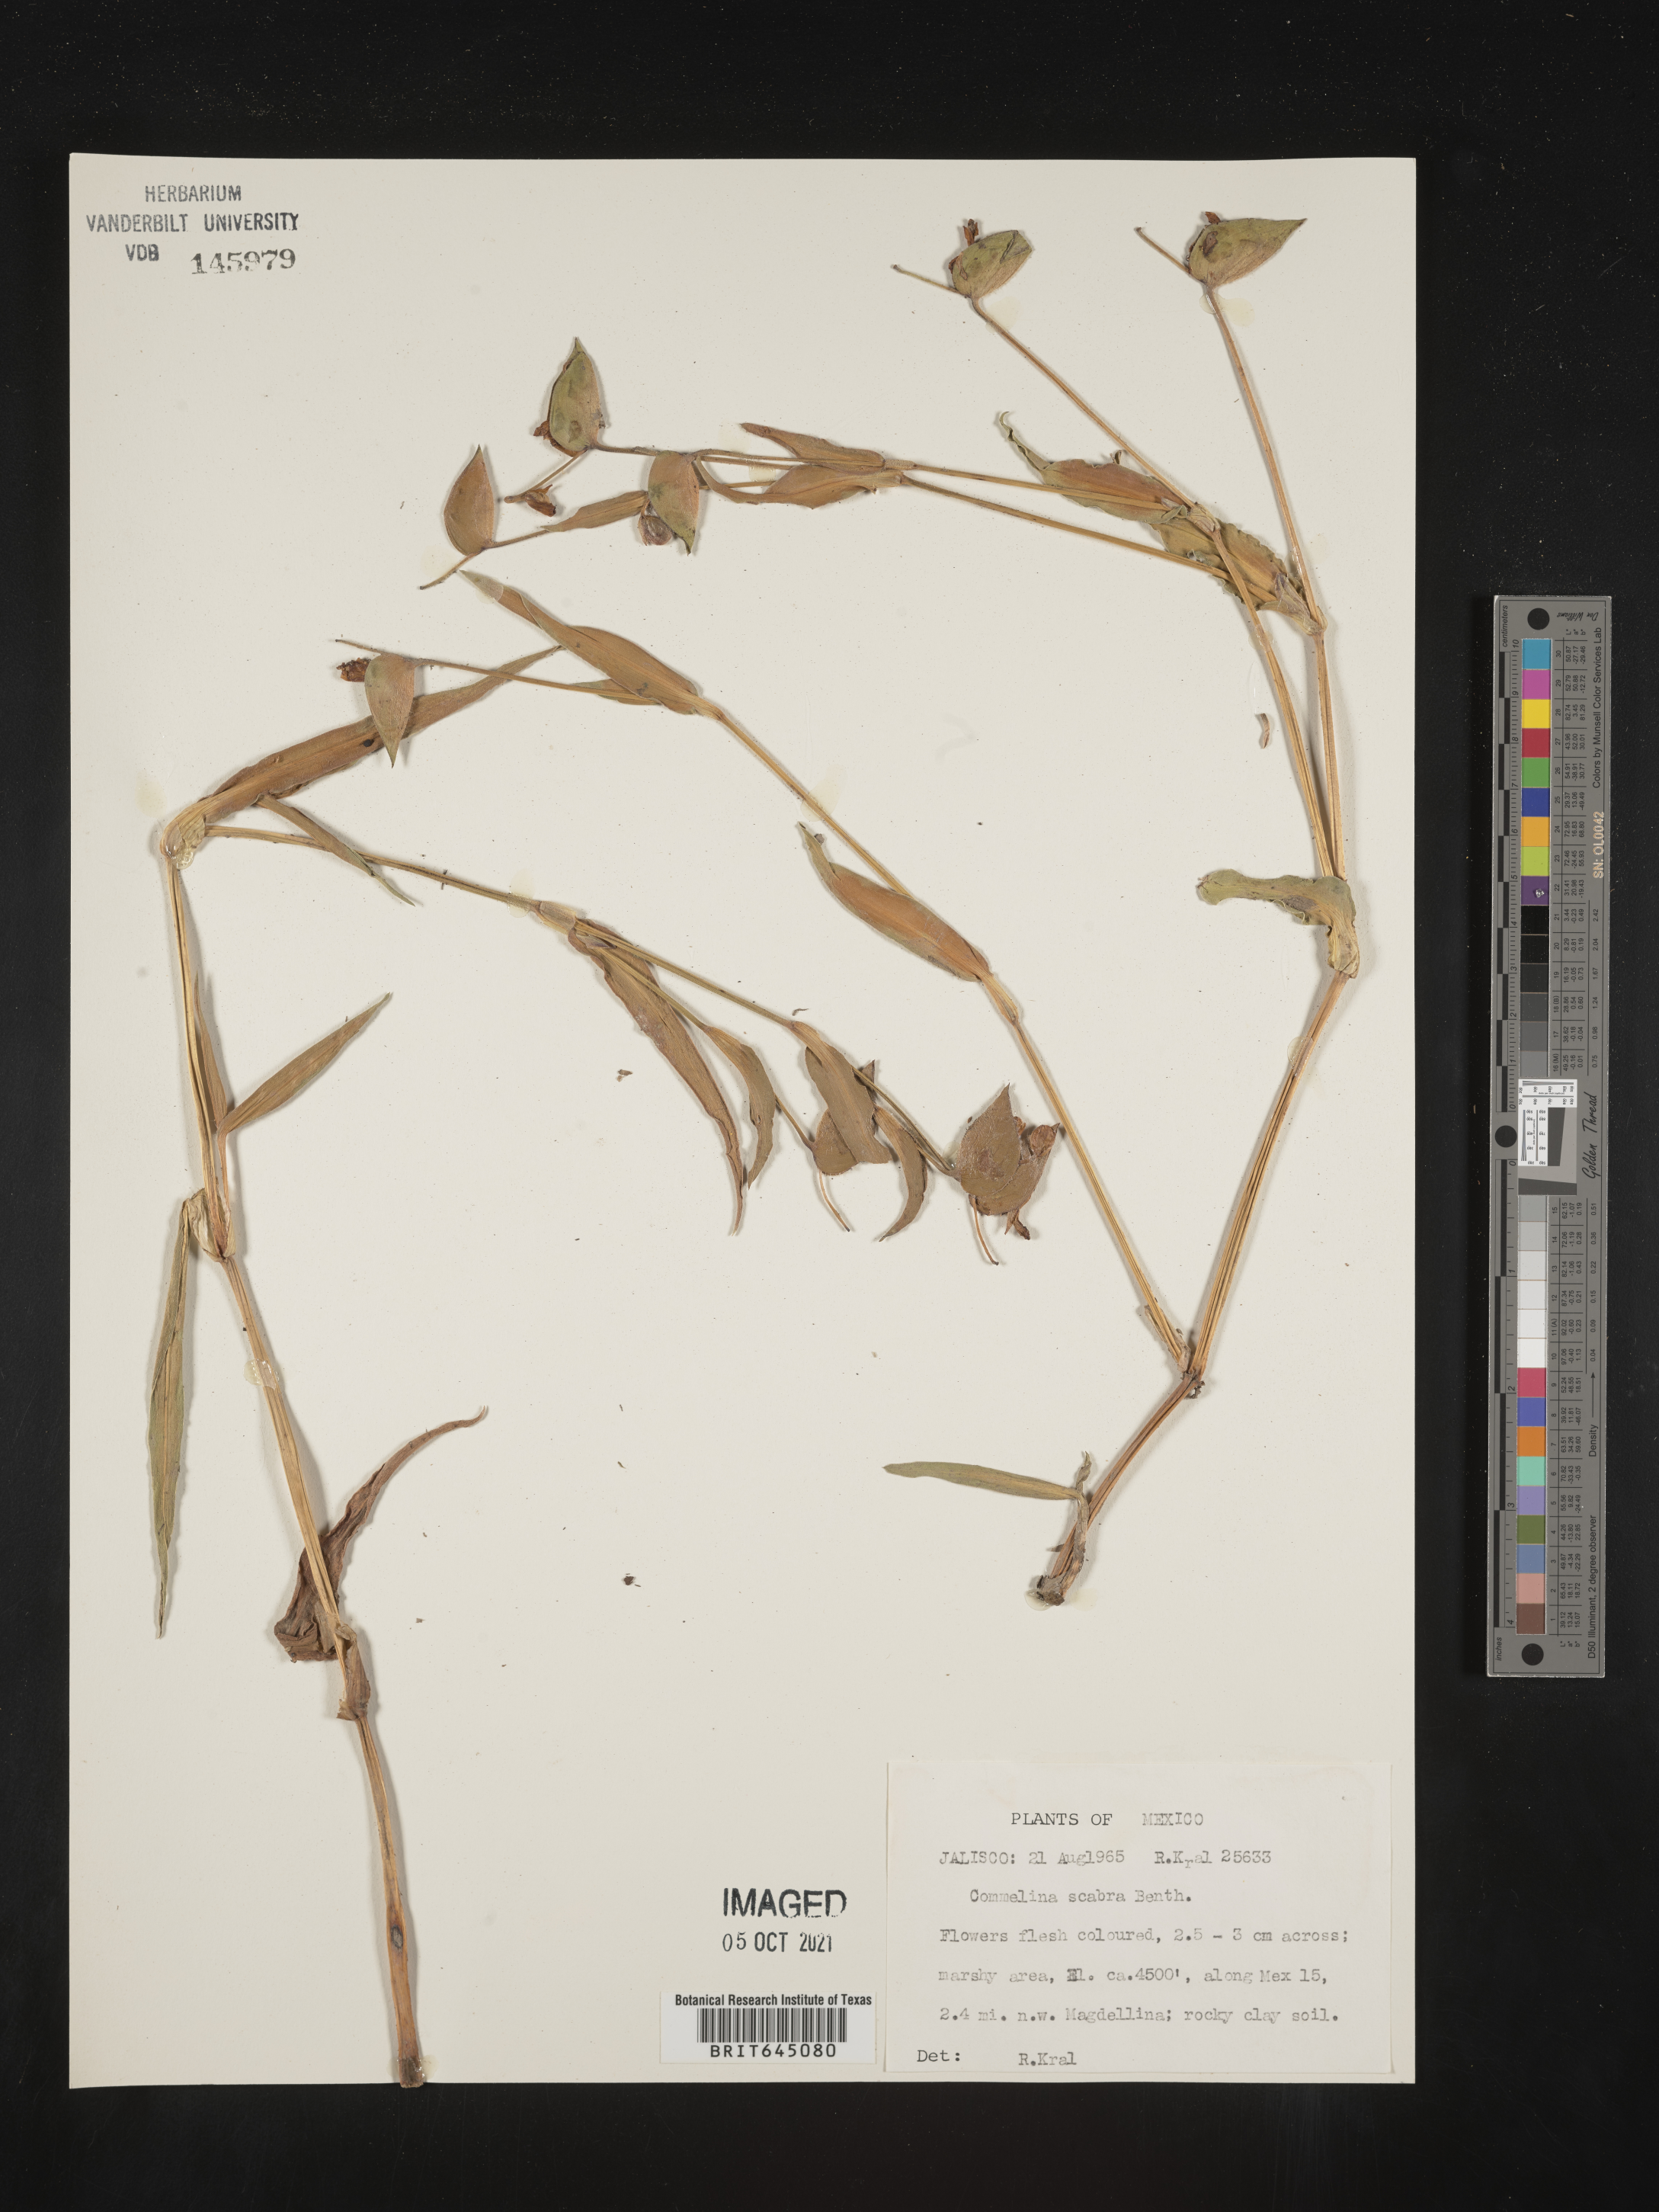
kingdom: Plantae
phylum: Tracheophyta
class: Liliopsida
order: Commelinales
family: Commelinaceae
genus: Commelina
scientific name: Commelina
